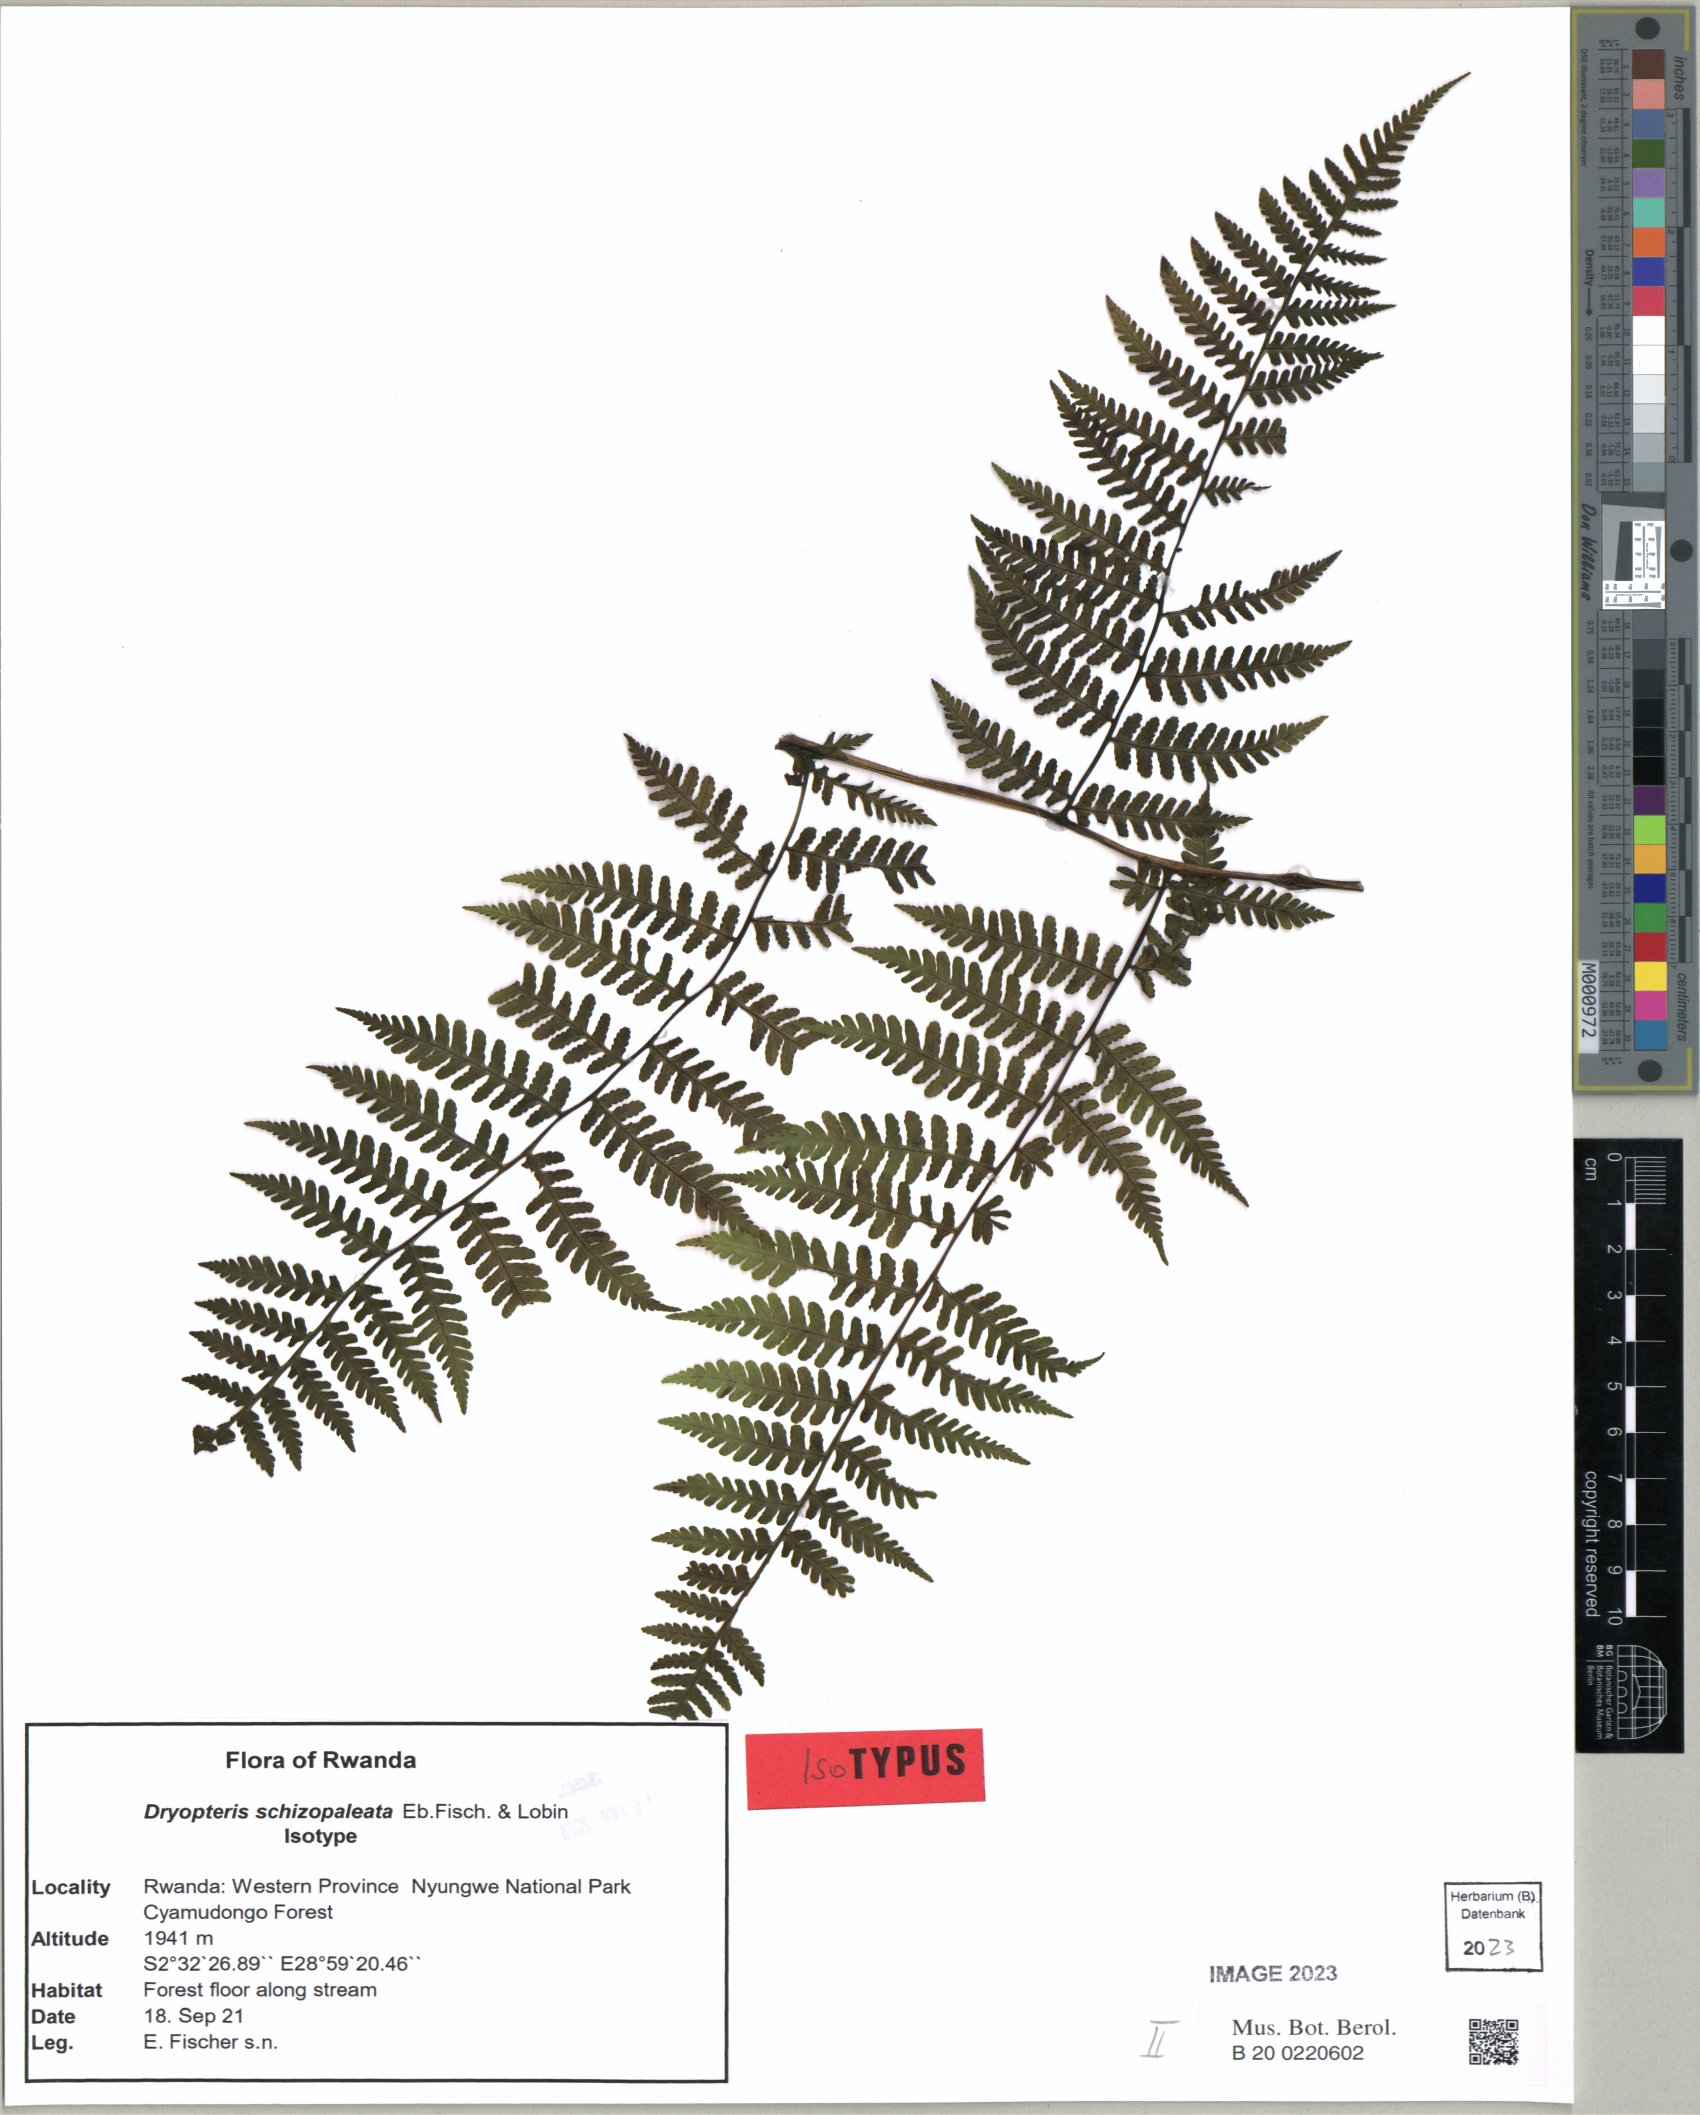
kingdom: Plantae
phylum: Tracheophyta
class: Polypodiopsida
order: Polypodiales
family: Dryopteridaceae
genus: Dryopteris
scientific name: Dryopteris schizopaleata
